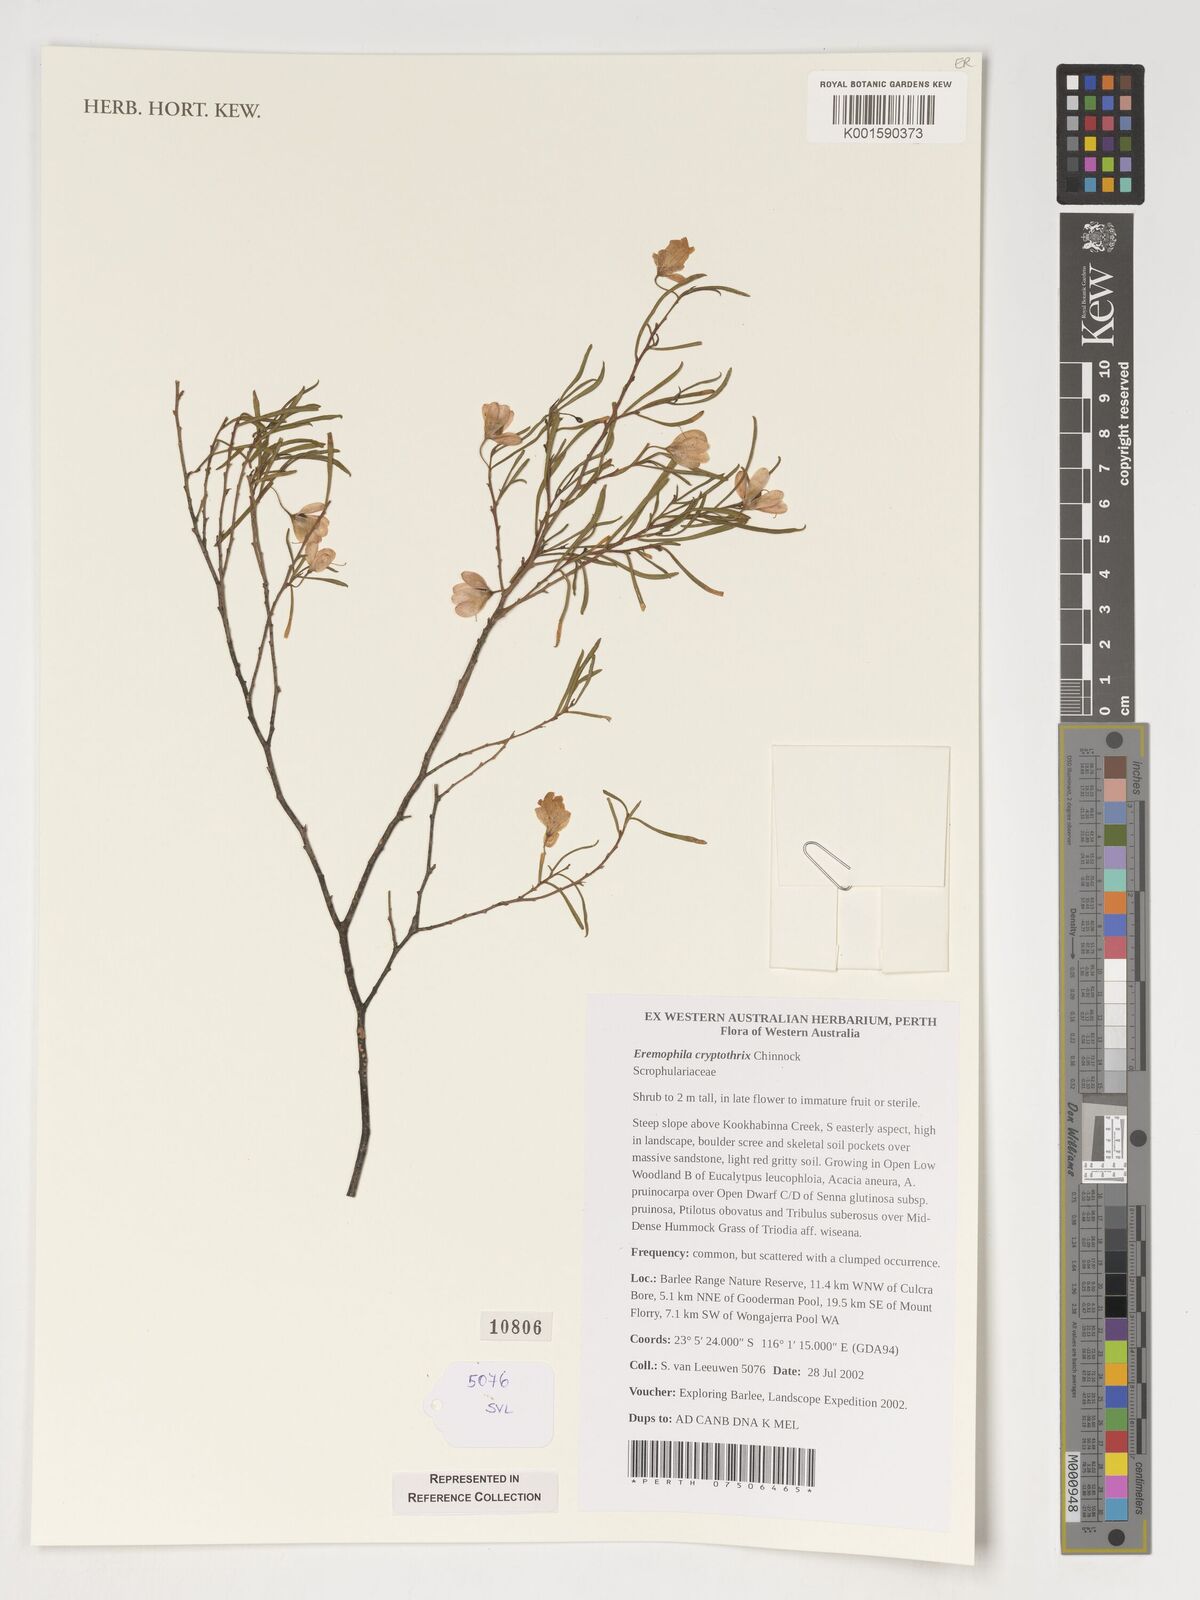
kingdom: Plantae
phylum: Tracheophyta
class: Magnoliopsida
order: Lamiales
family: Scrophulariaceae
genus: Eremophila
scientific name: Eremophila cryptothrix
